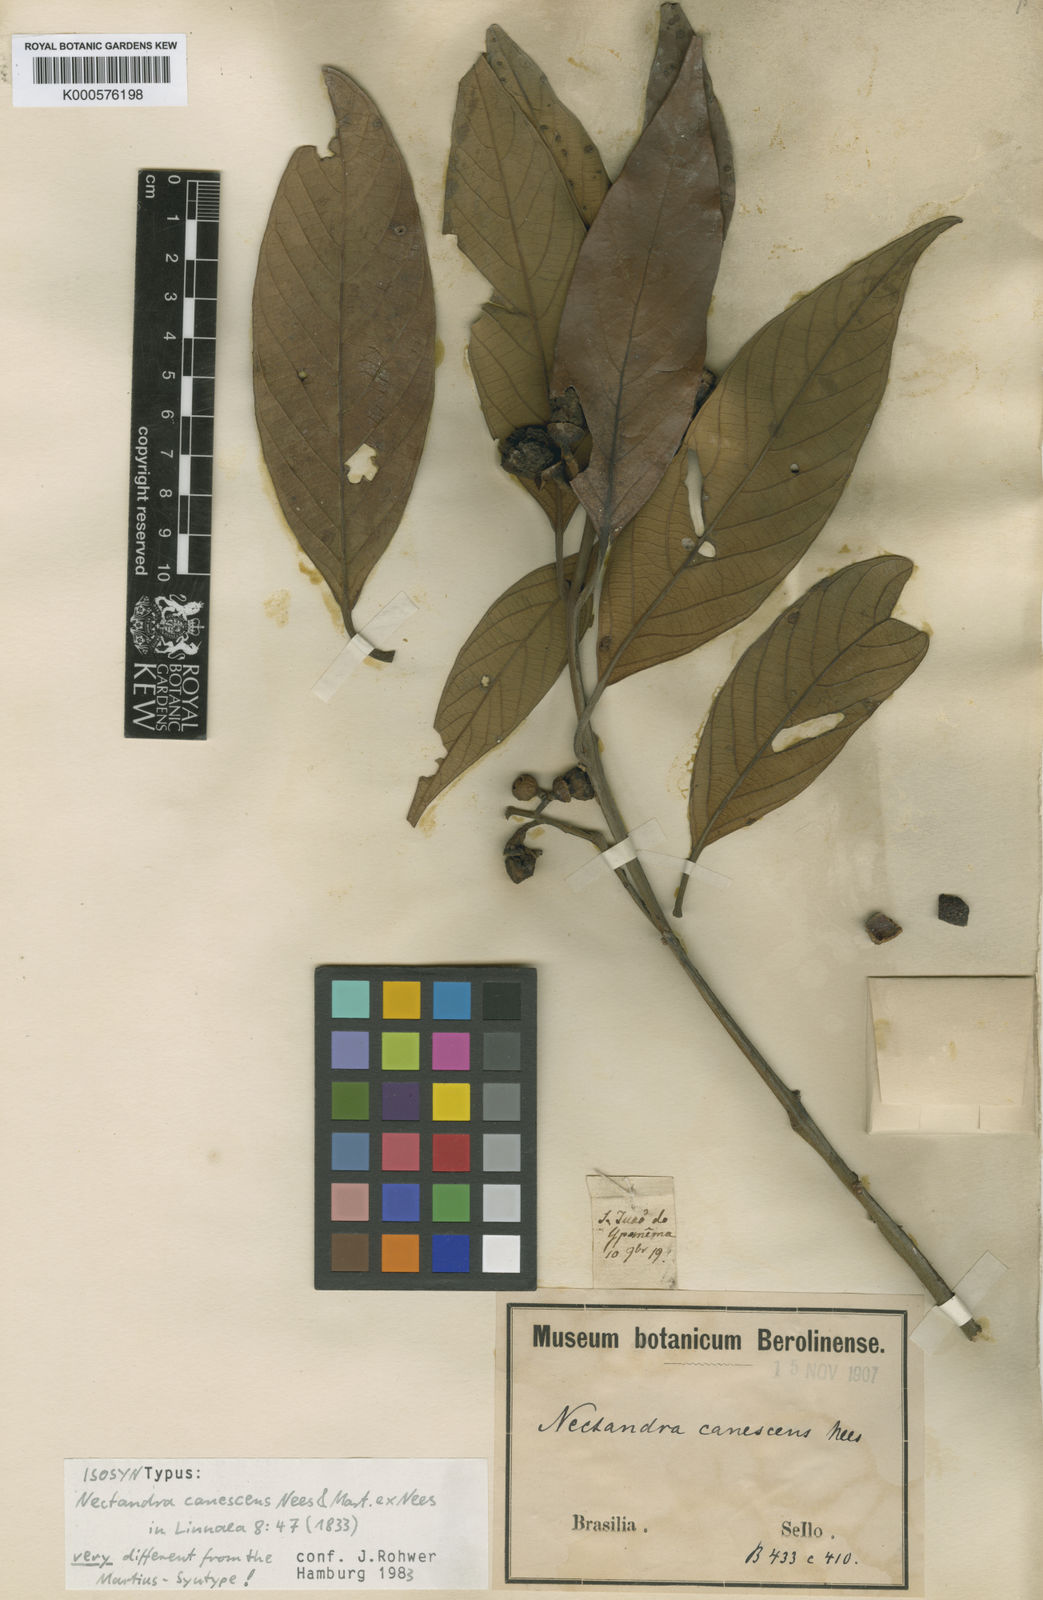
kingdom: Plantae
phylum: Tracheophyta
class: Magnoliopsida
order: Laurales
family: Lauraceae
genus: Nectandra
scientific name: Nectandra canescens
